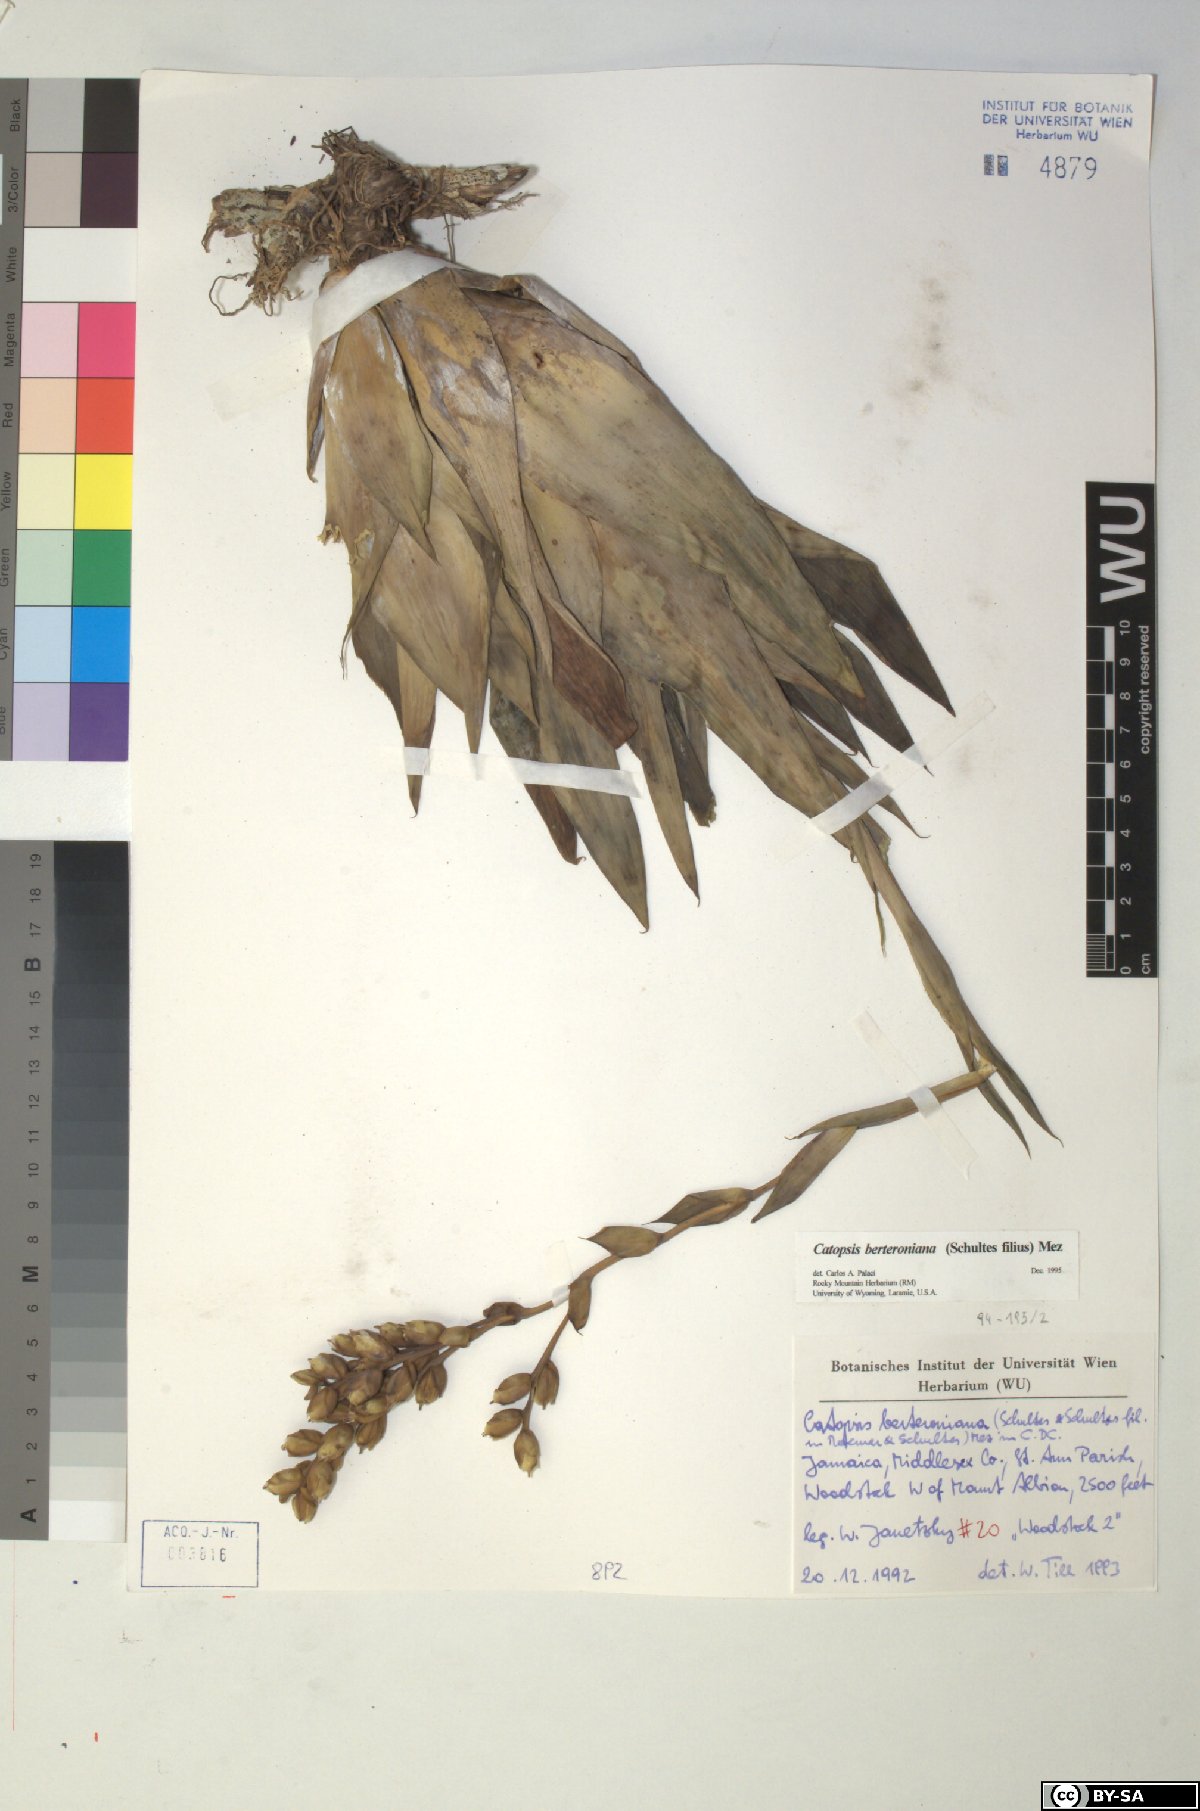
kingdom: Plantae
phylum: Tracheophyta
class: Liliopsida
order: Poales
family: Bromeliaceae
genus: Catopsis
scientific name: Catopsis berteroniana
